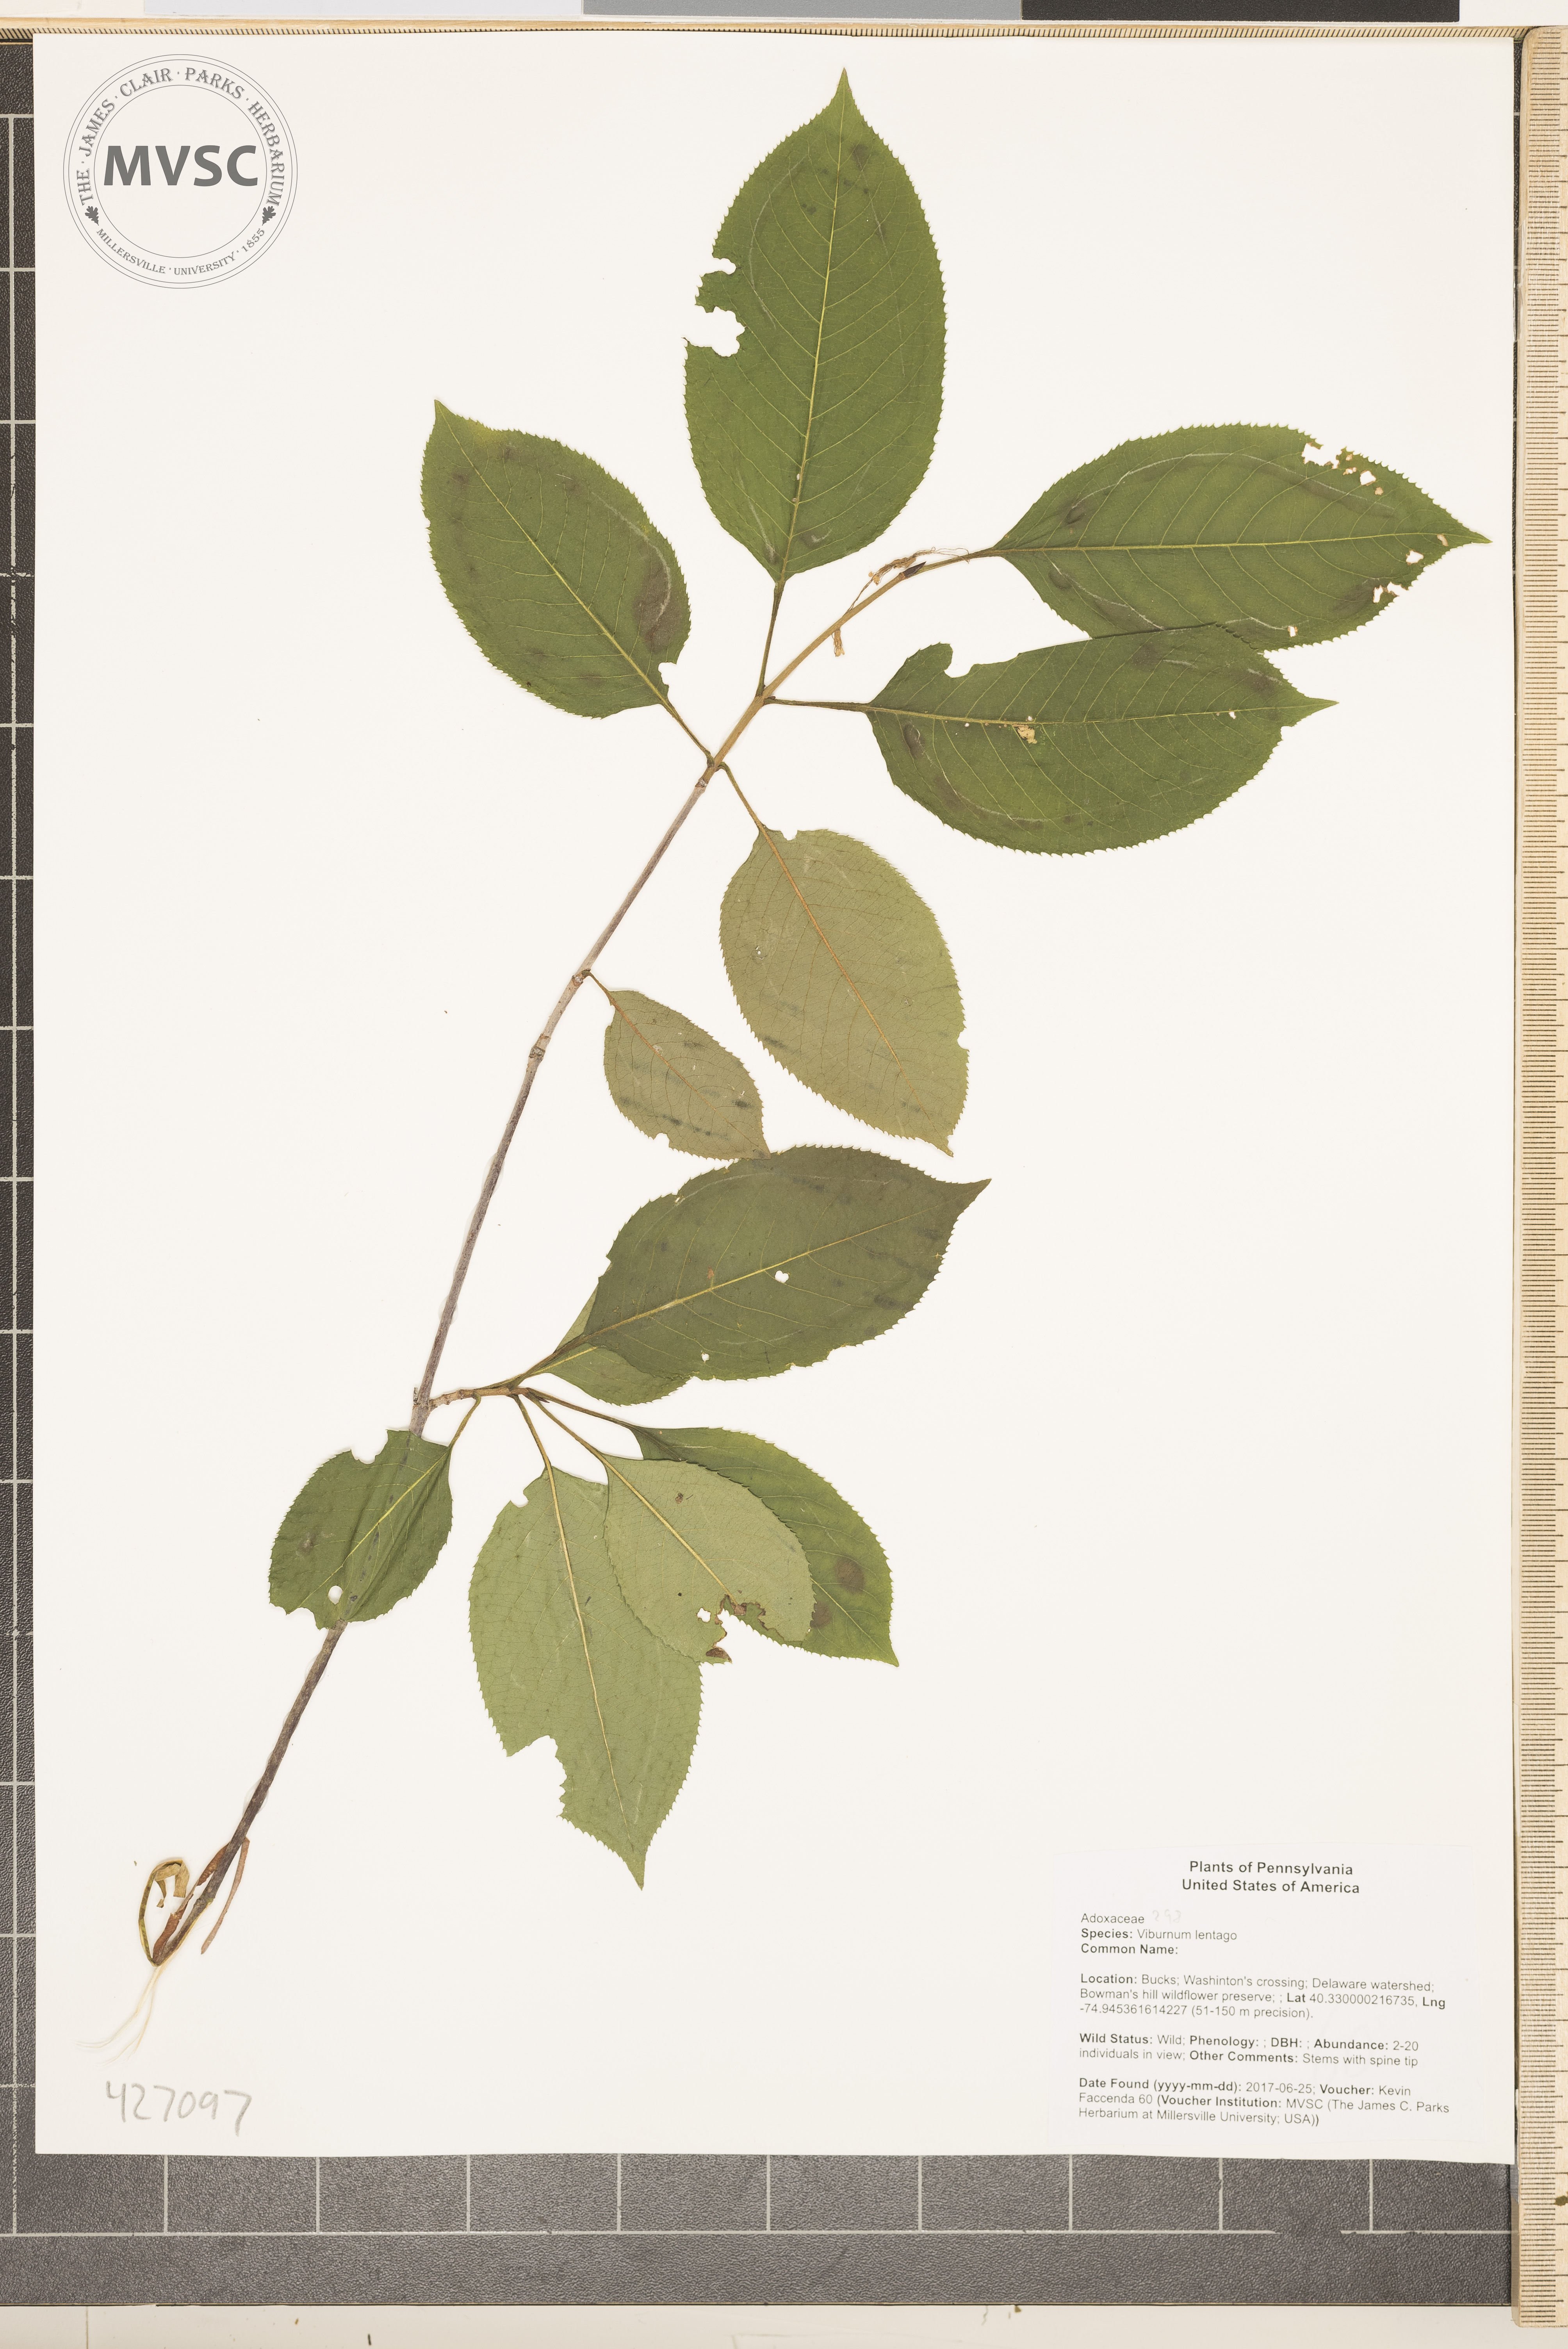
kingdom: Plantae
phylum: Tracheophyta
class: Magnoliopsida
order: Dipsacales
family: Viburnaceae
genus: Viburnum
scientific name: Viburnum lentago
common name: Black haw
